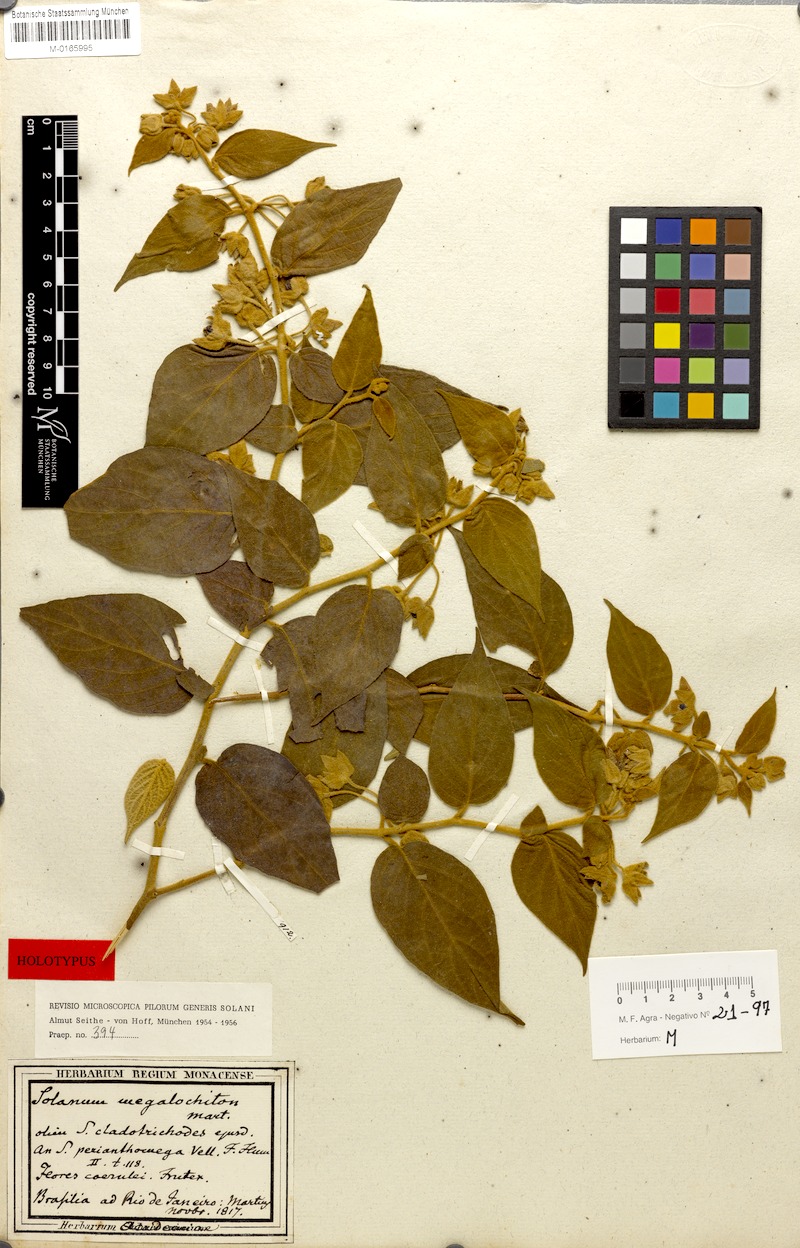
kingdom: Plantae
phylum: Tracheophyta
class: Magnoliopsida
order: Solanales
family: Solanaceae
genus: Solanum
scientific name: Solanum megalochiton
